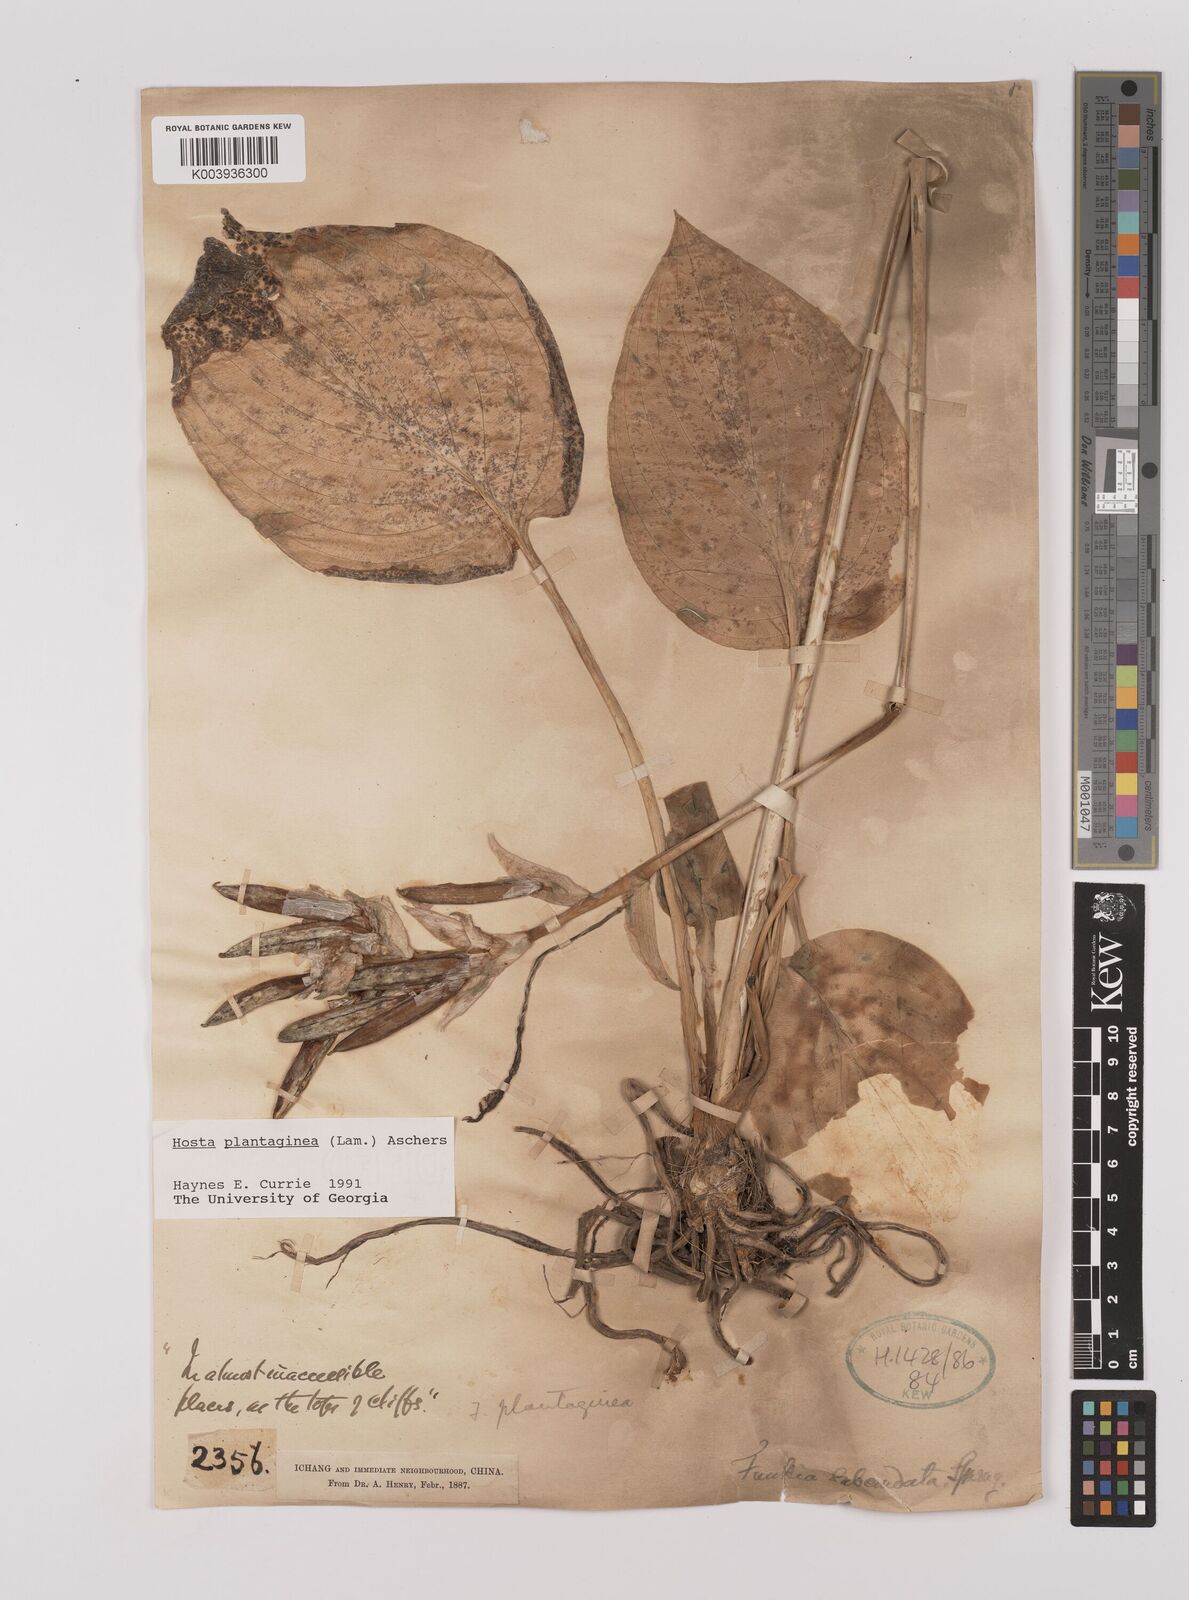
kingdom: Plantae
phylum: Tracheophyta
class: Liliopsida
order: Asparagales
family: Asparagaceae
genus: Hosta
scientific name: Hosta plantaginea
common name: August-lily
